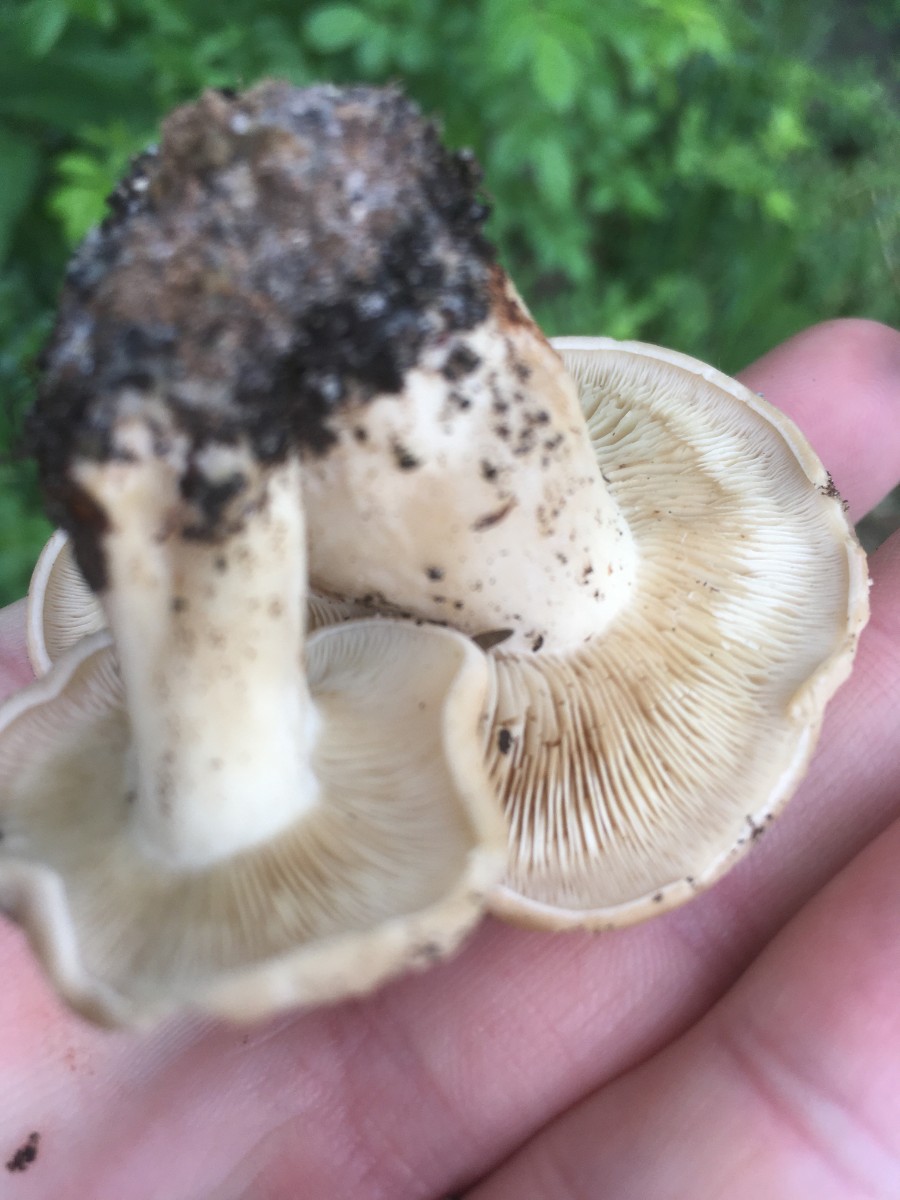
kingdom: Fungi
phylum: Basidiomycota
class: Agaricomycetes
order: Agaricales
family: Lyophyllaceae
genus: Calocybe
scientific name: Calocybe gambosa
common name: vårmusseron
